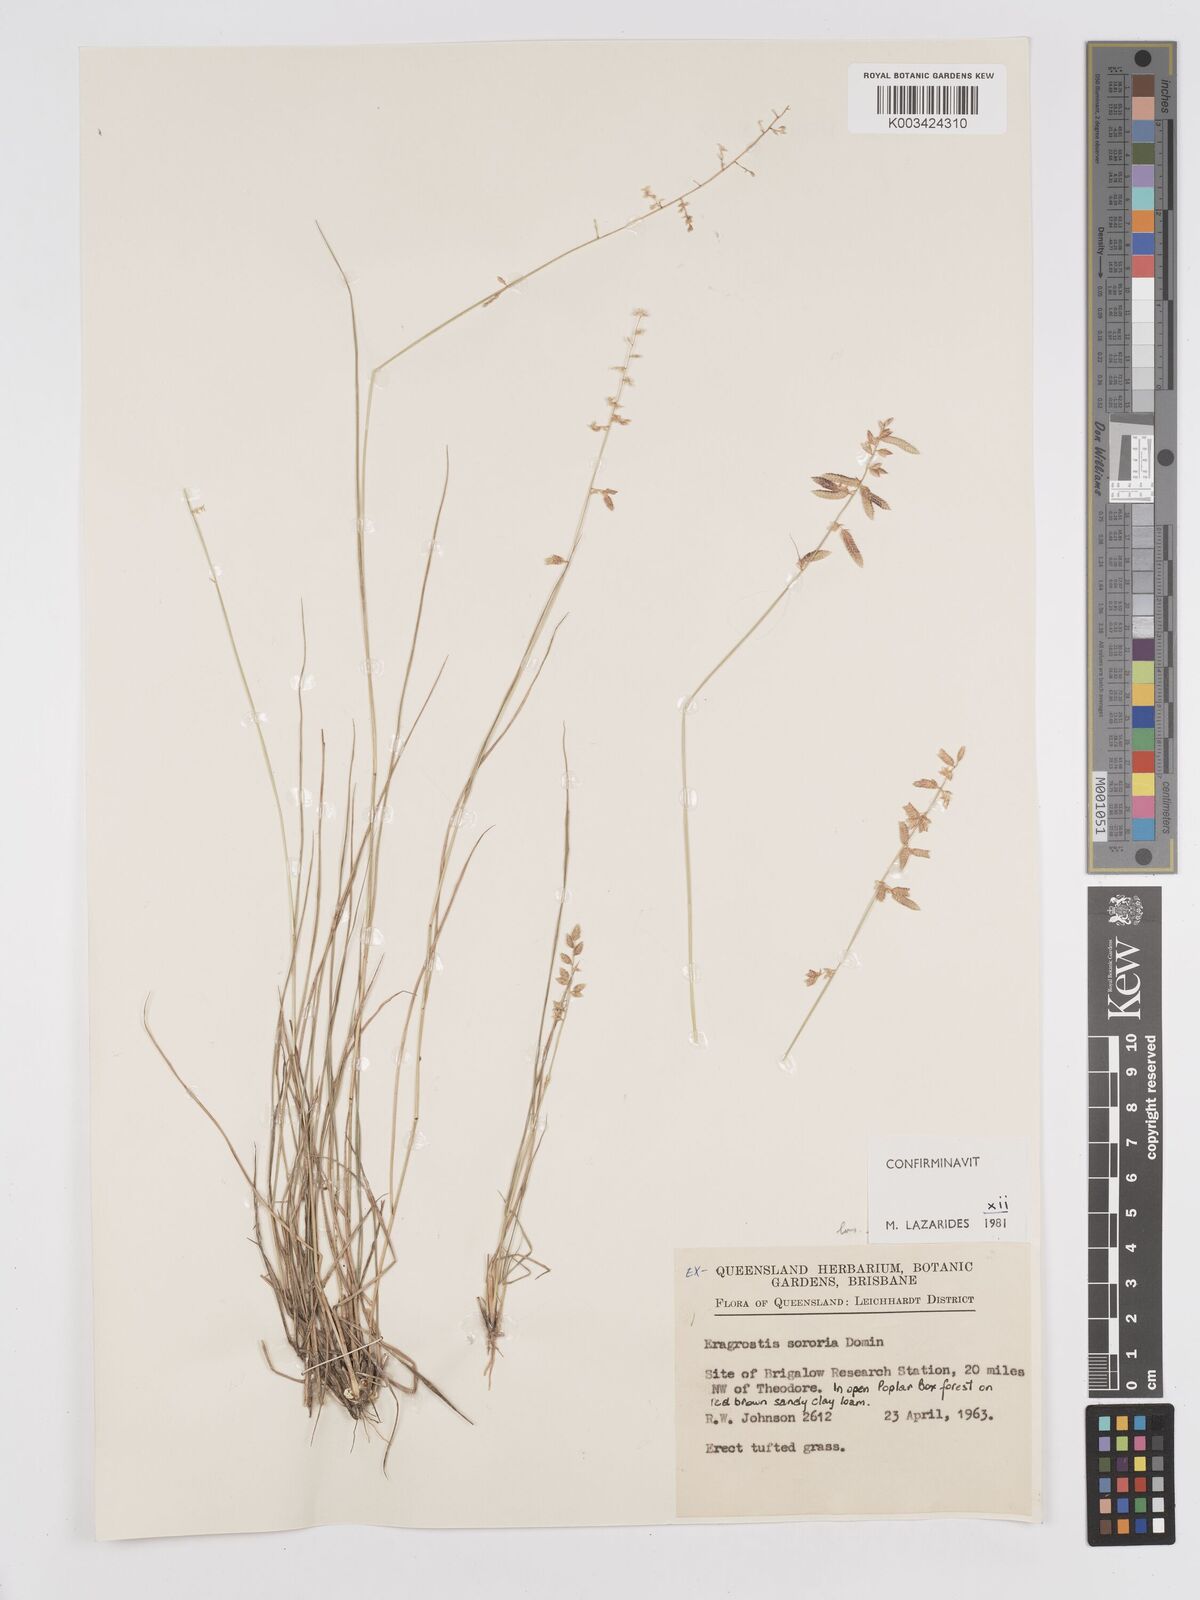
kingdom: Plantae
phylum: Tracheophyta
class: Liliopsida
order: Poales
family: Poaceae
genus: Eragrostis
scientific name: Eragrostis sororia
